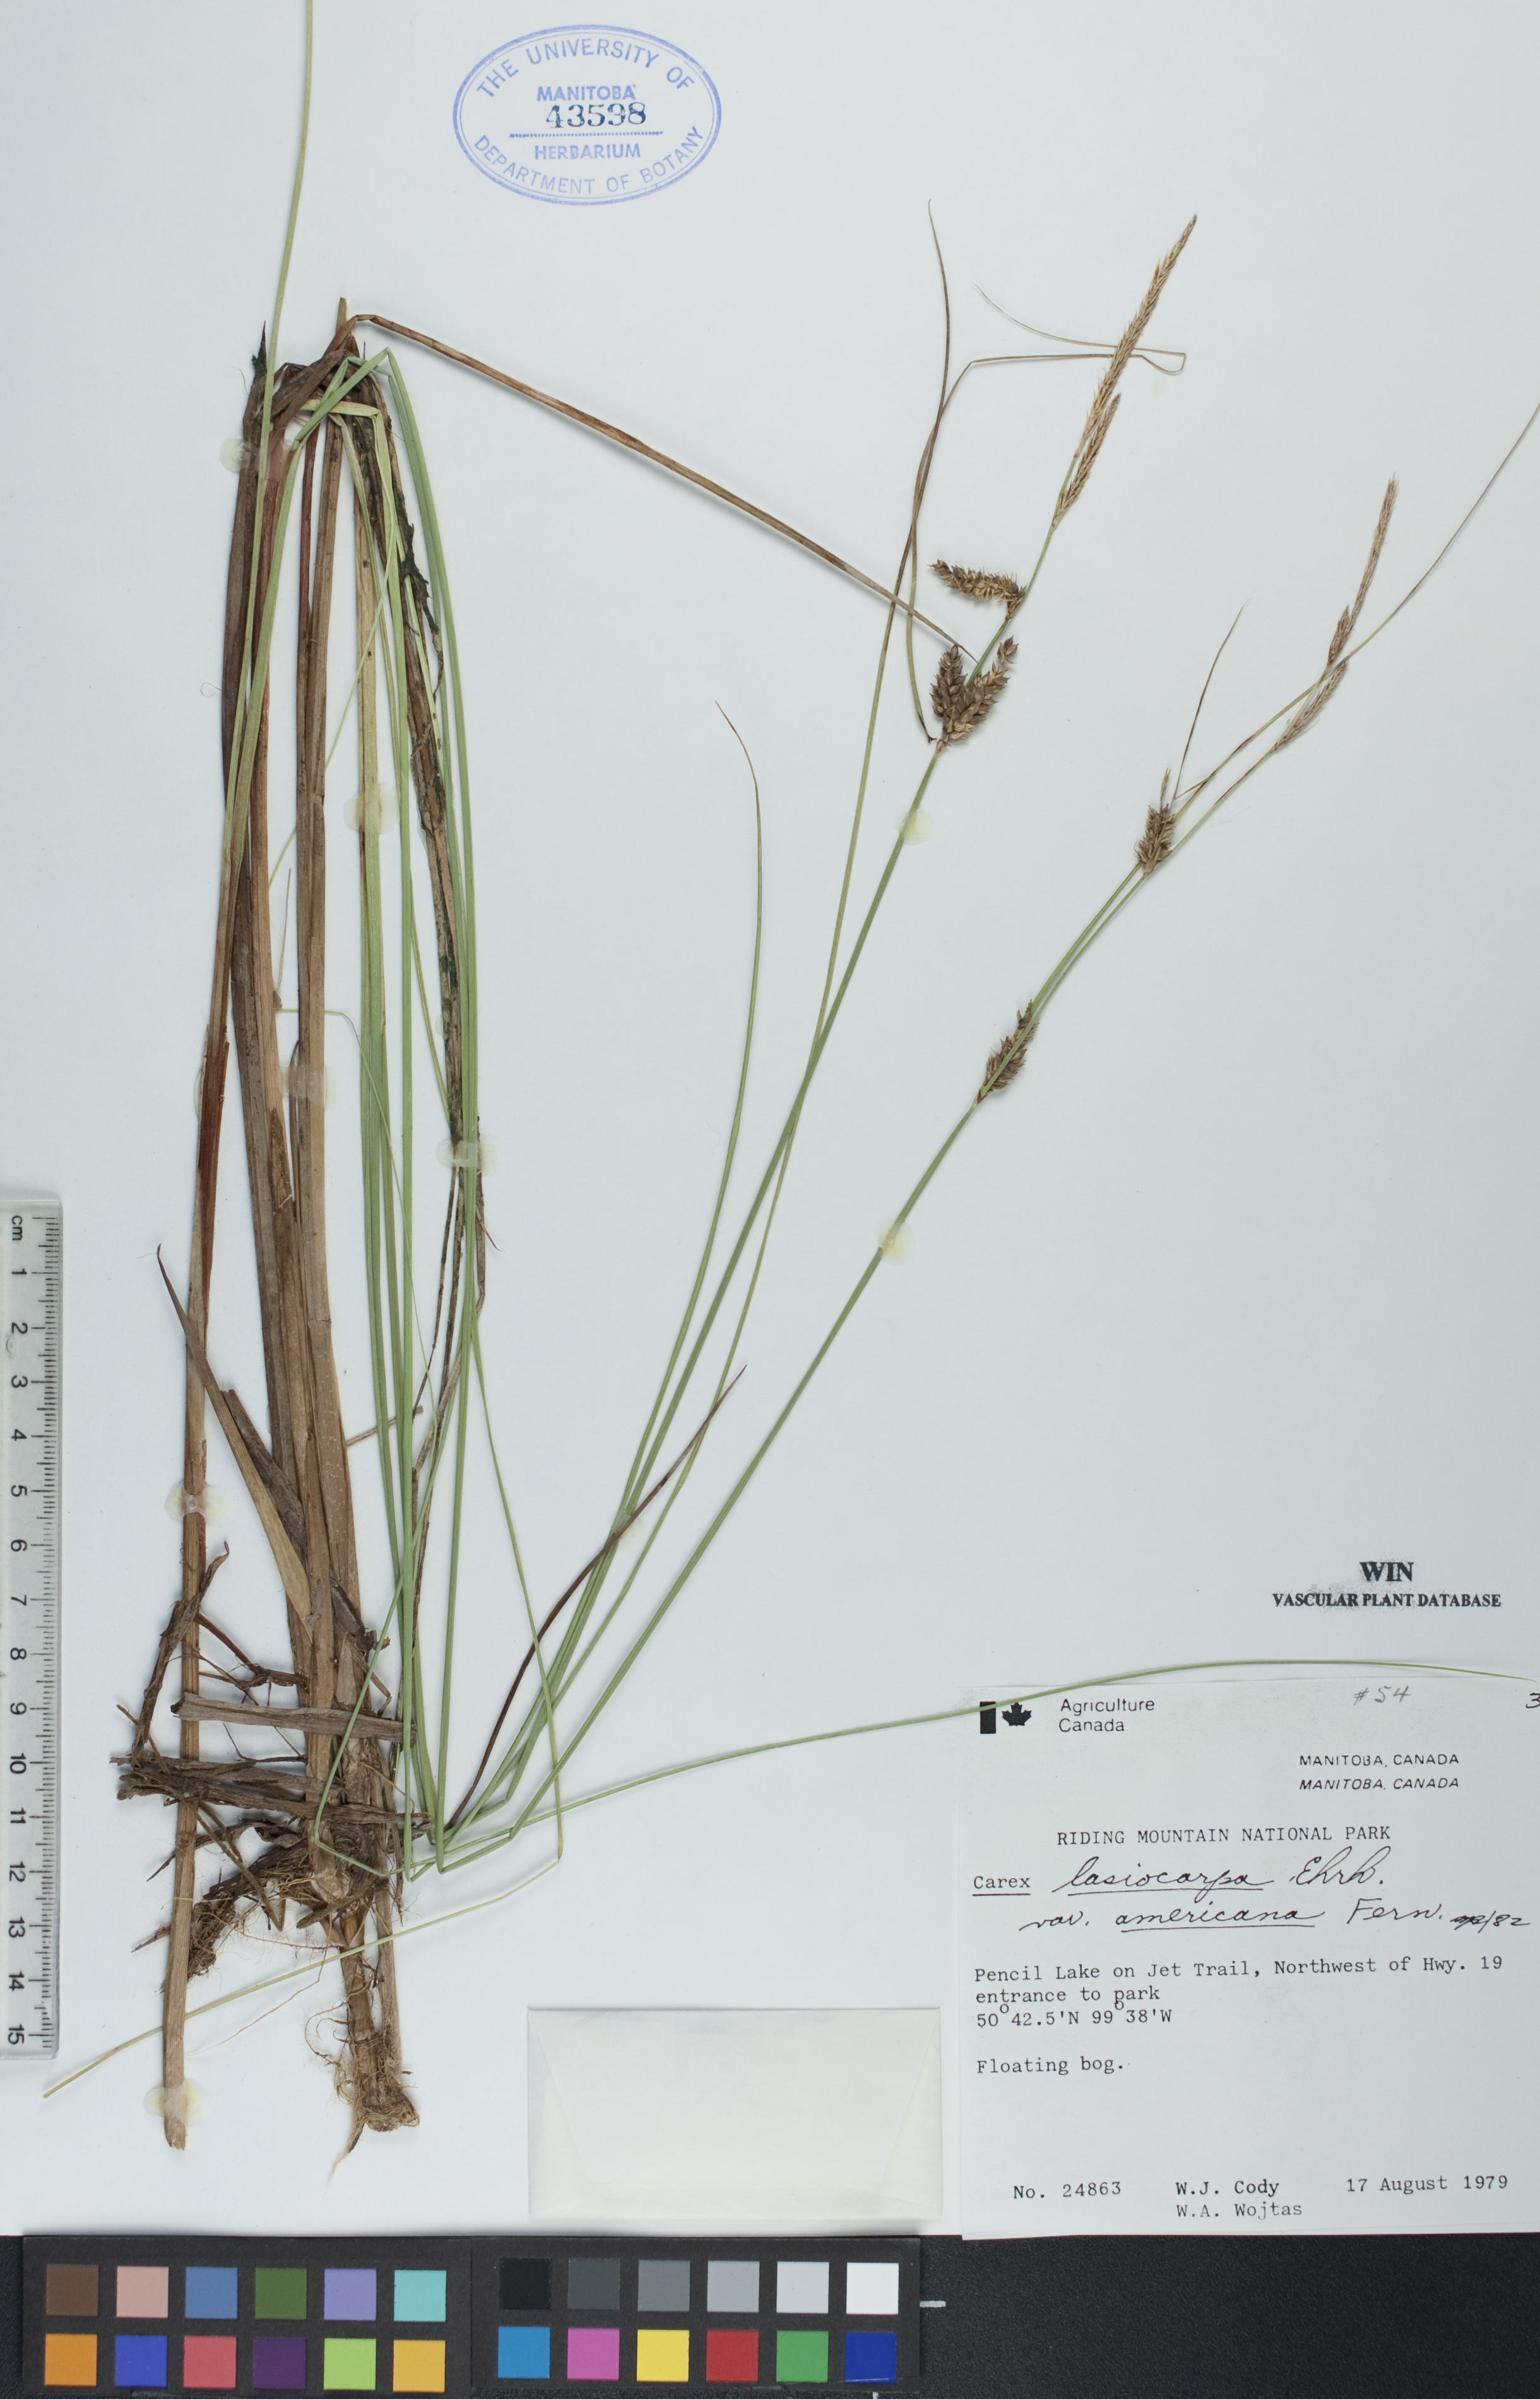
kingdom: Plantae
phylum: Tracheophyta
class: Liliopsida
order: Poales
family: Cyperaceae
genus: Carex
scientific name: Carex lasiocarpa
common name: Slender sedge
